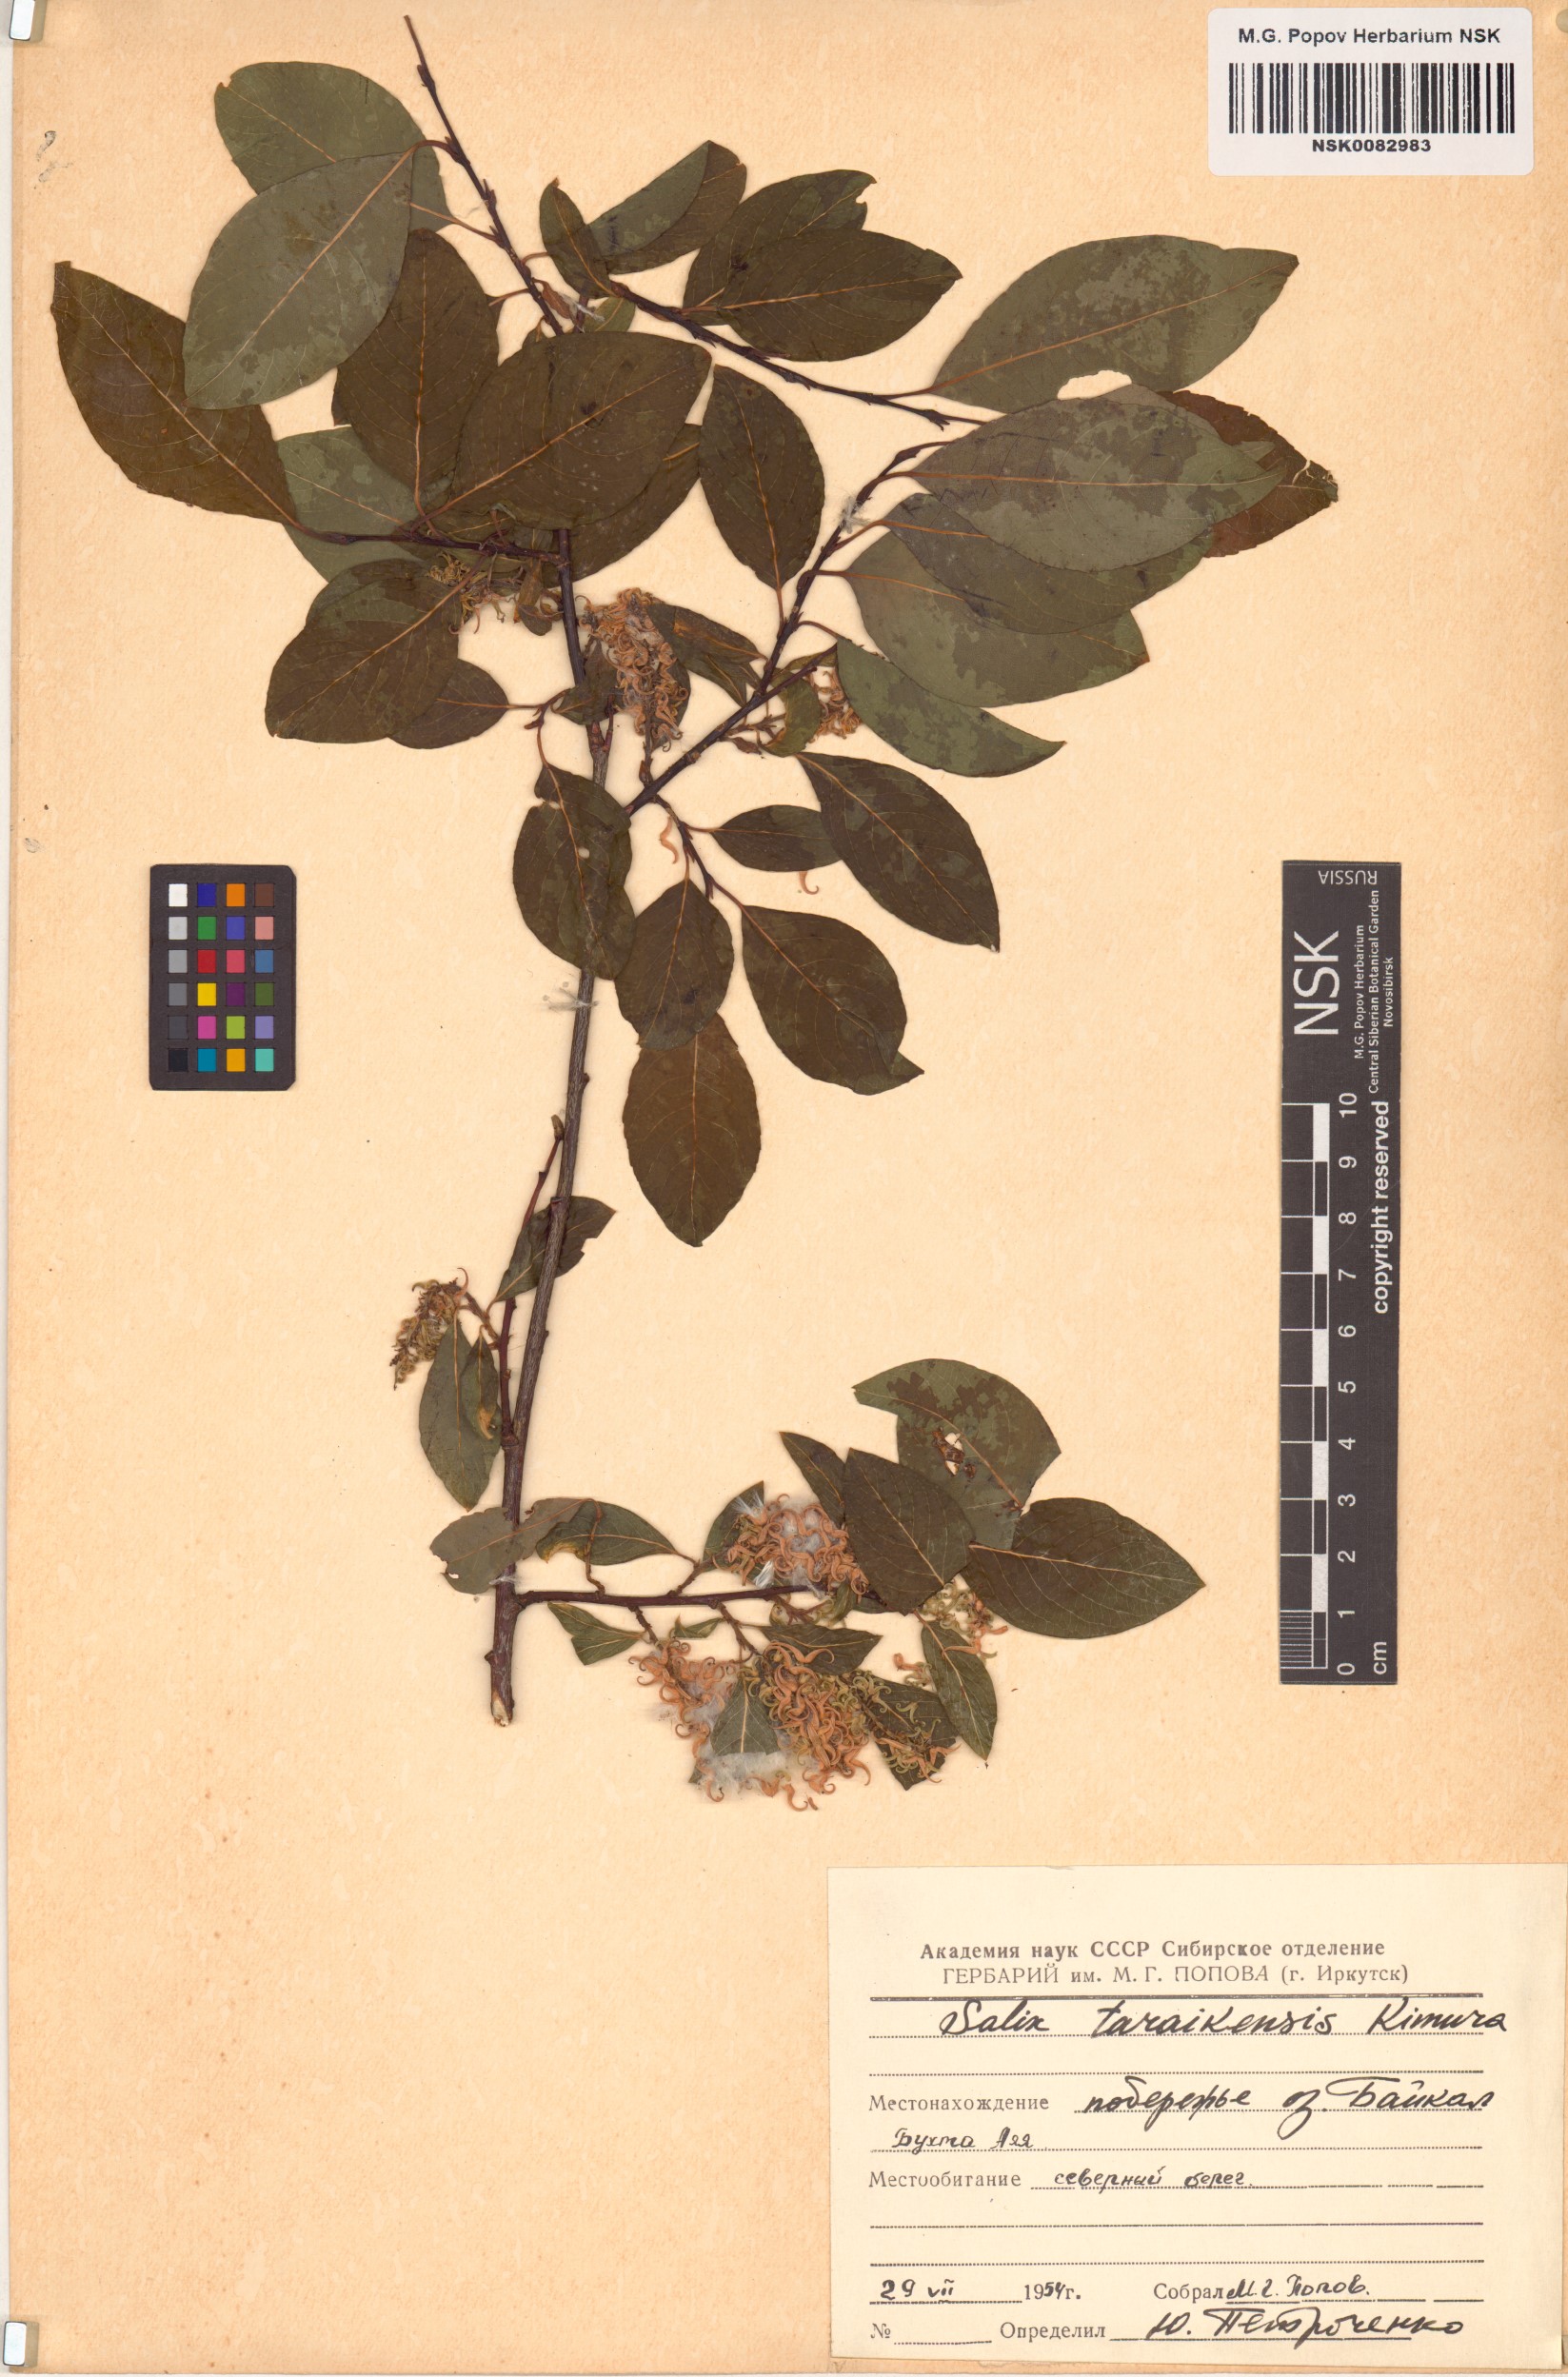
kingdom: Plantae
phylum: Tracheophyta
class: Magnoliopsida
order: Malpighiales
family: Salicaceae
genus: Salix
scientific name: Salix taraikensis
